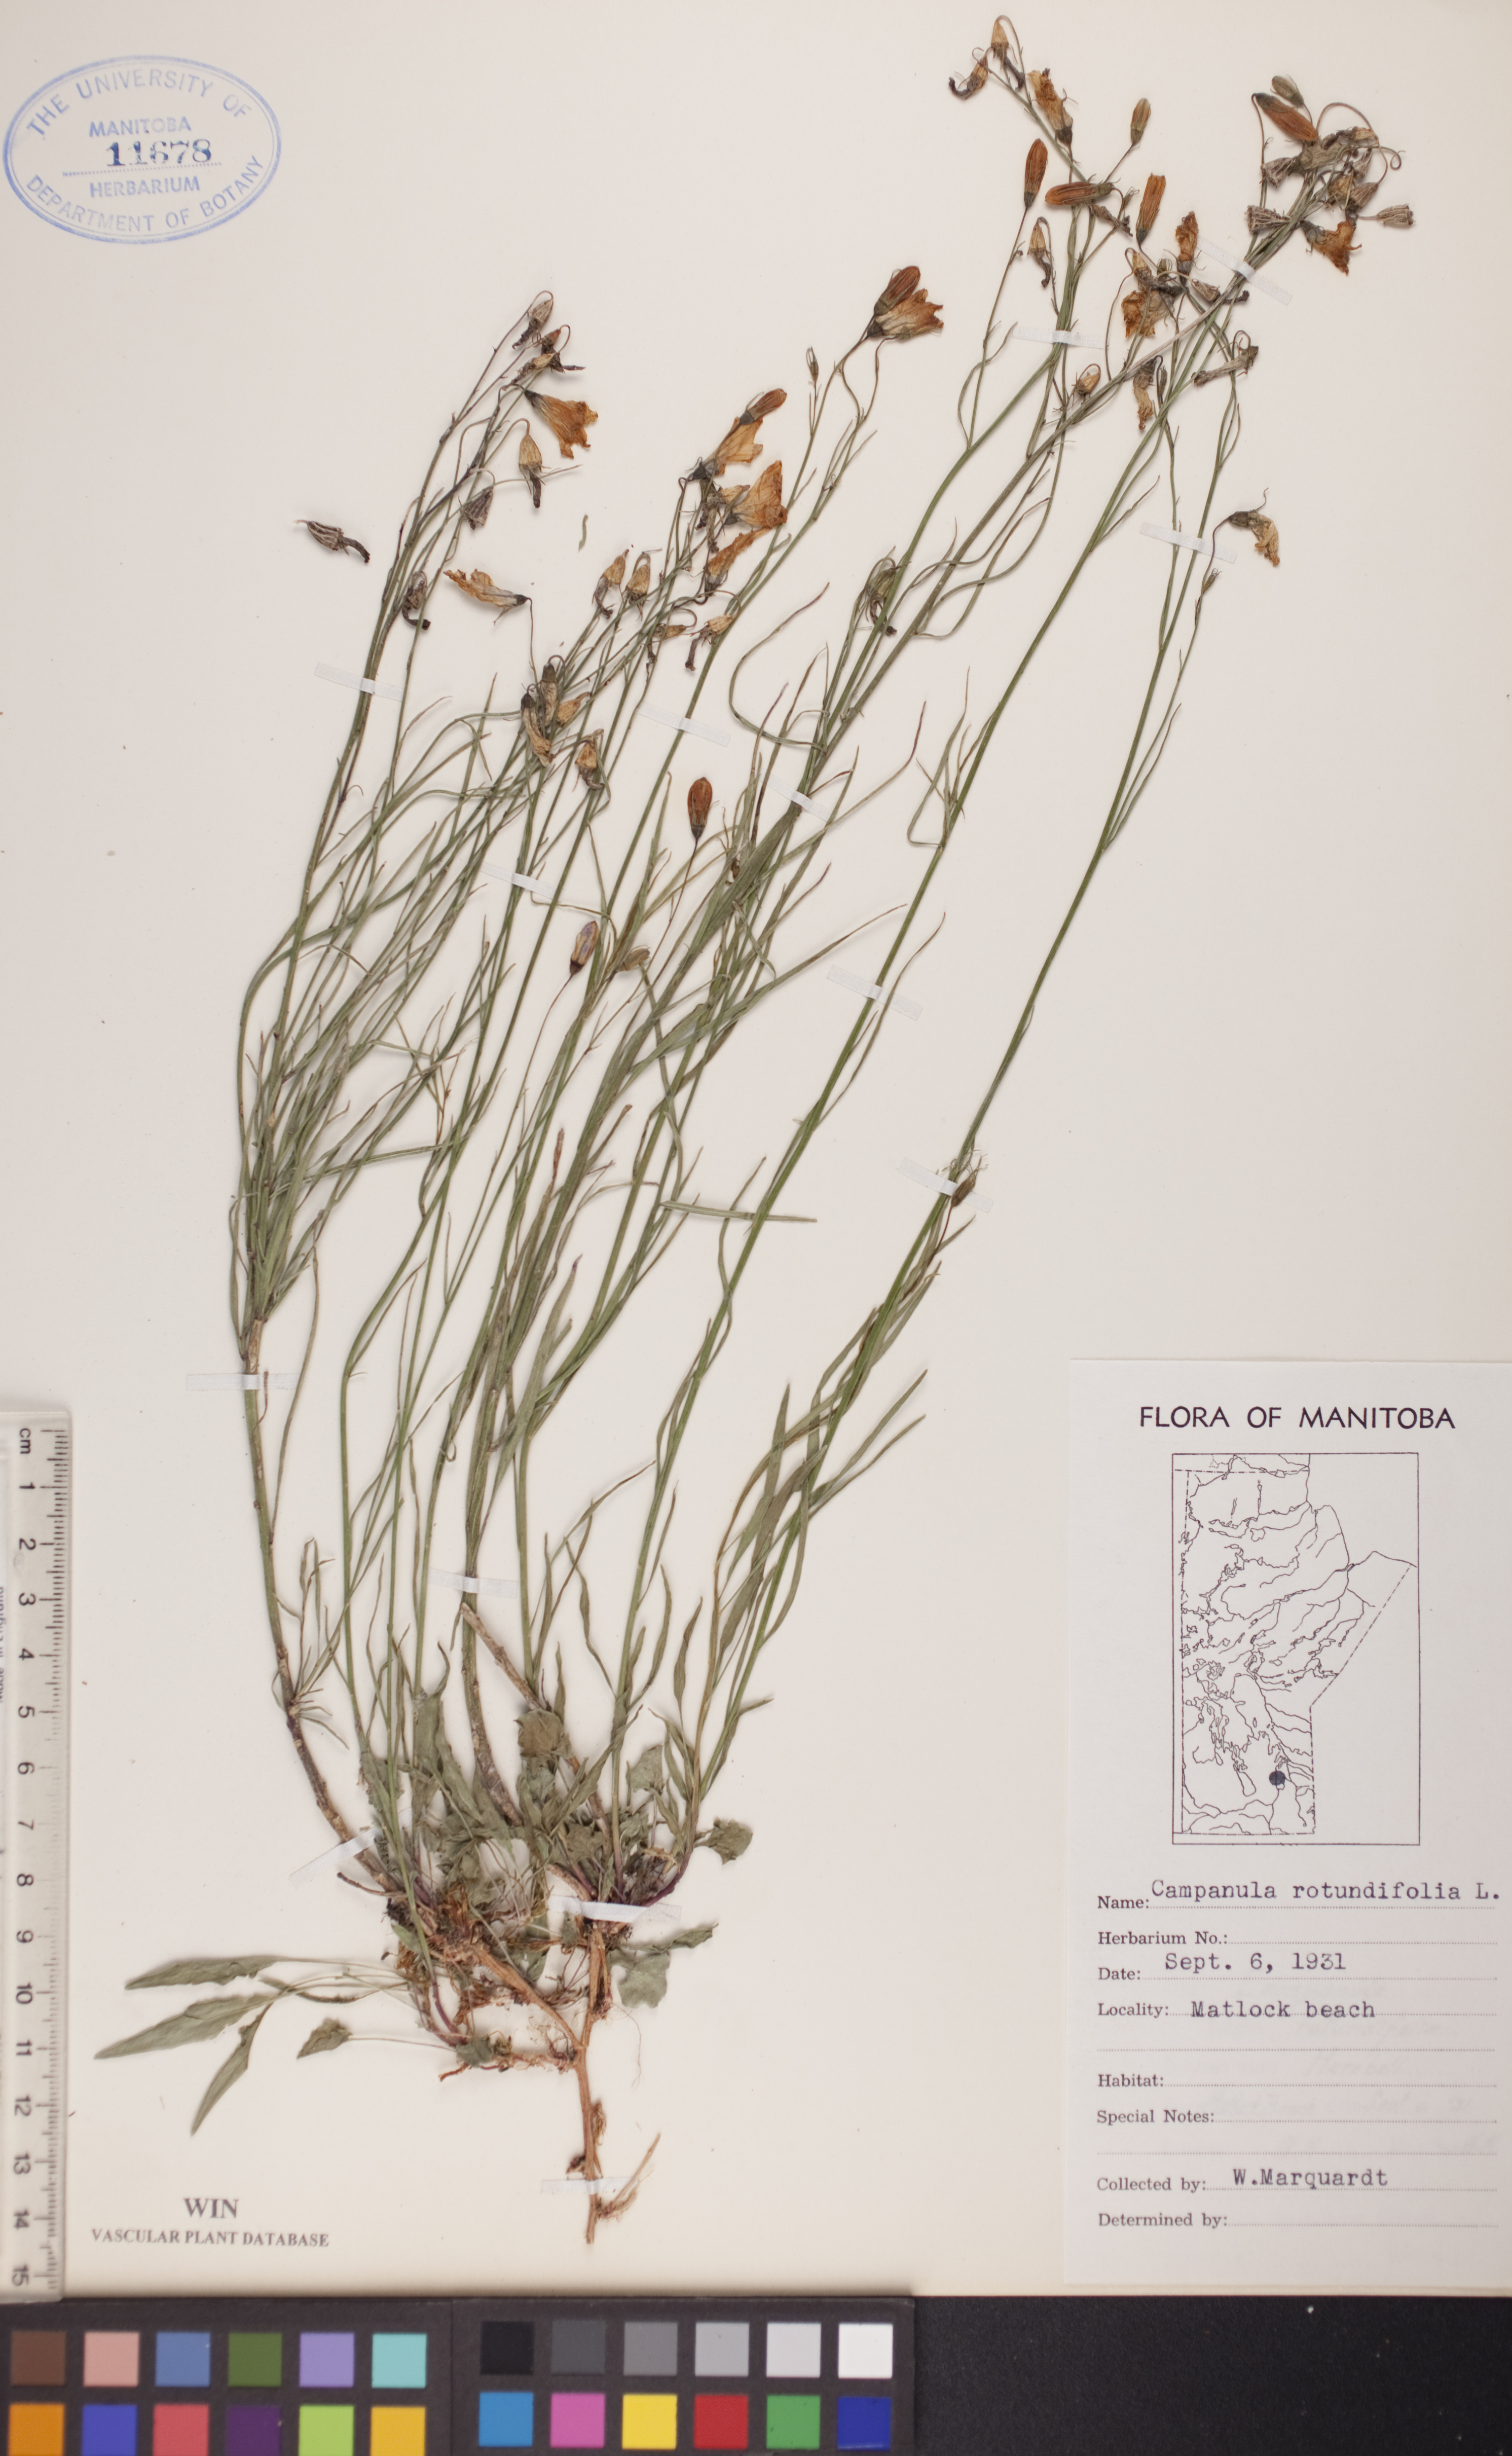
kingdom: Plantae
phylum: Tracheophyta
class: Magnoliopsida
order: Asterales
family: Campanulaceae
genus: Campanula
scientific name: Campanula rotundifolia
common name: Harebell
